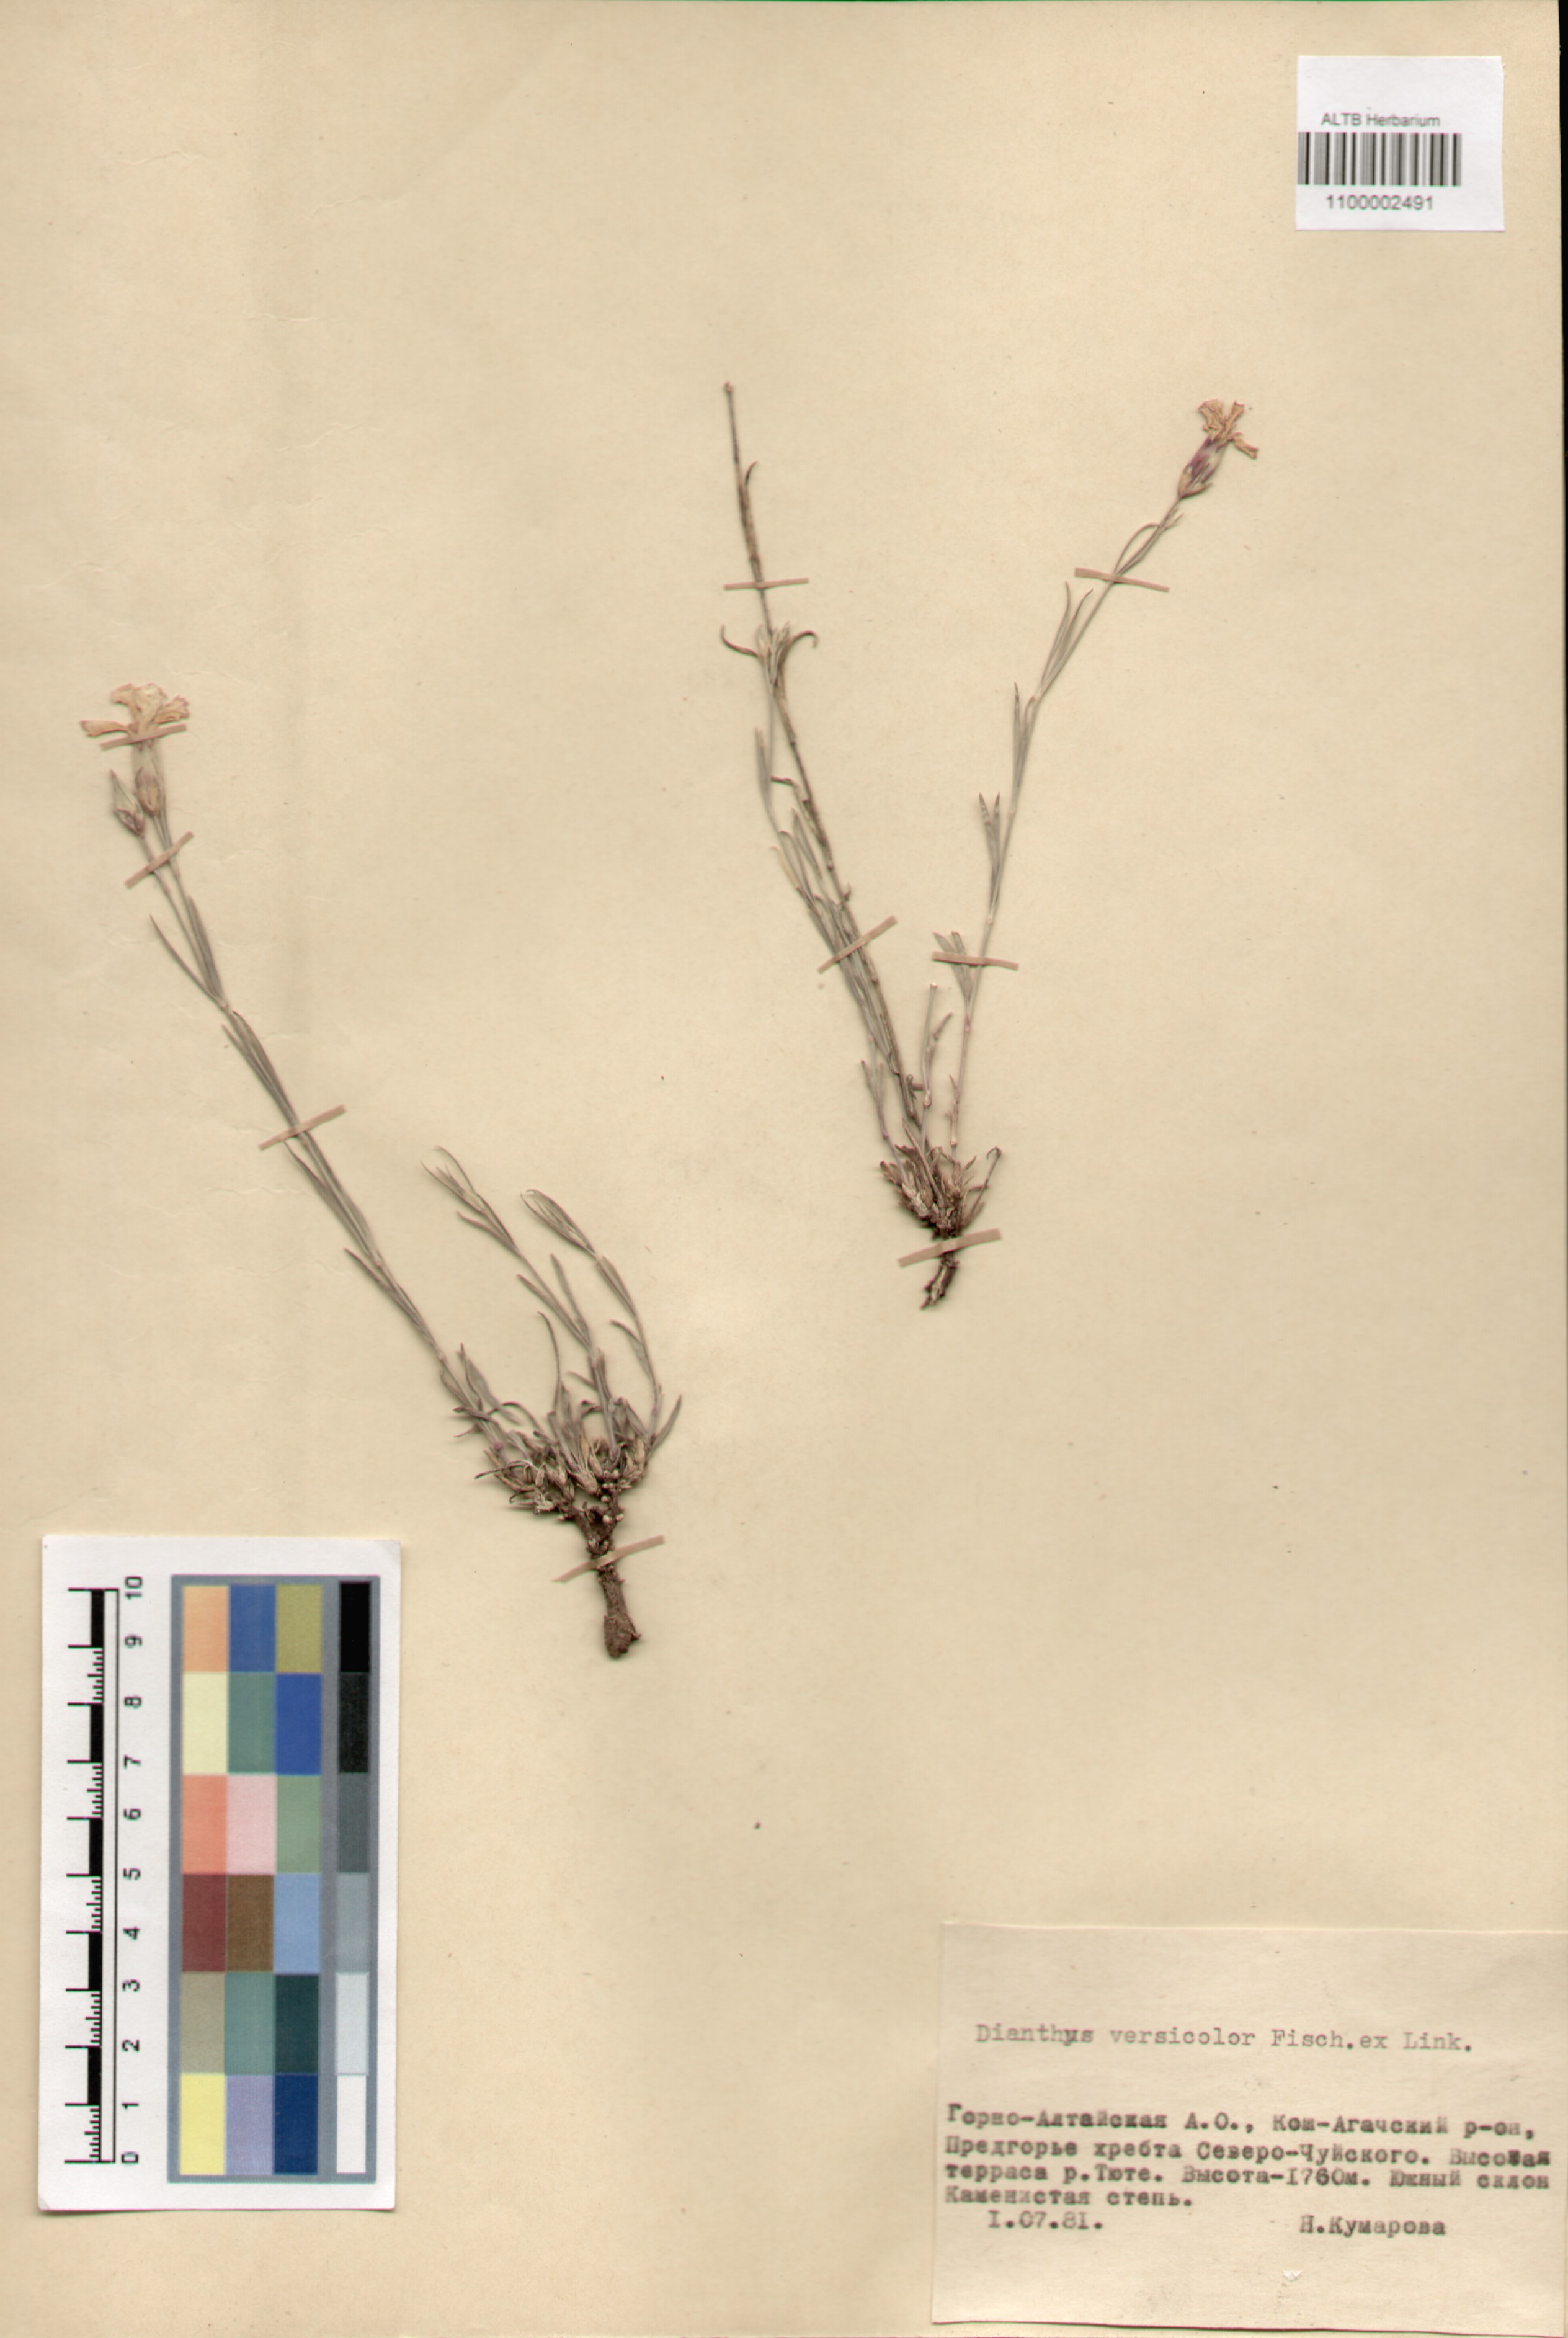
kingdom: Plantae
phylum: Tracheophyta
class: Magnoliopsida
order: Caryophyllales
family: Caryophyllaceae
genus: Dianthus
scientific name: Dianthus chinensis
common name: Rainbow pink
